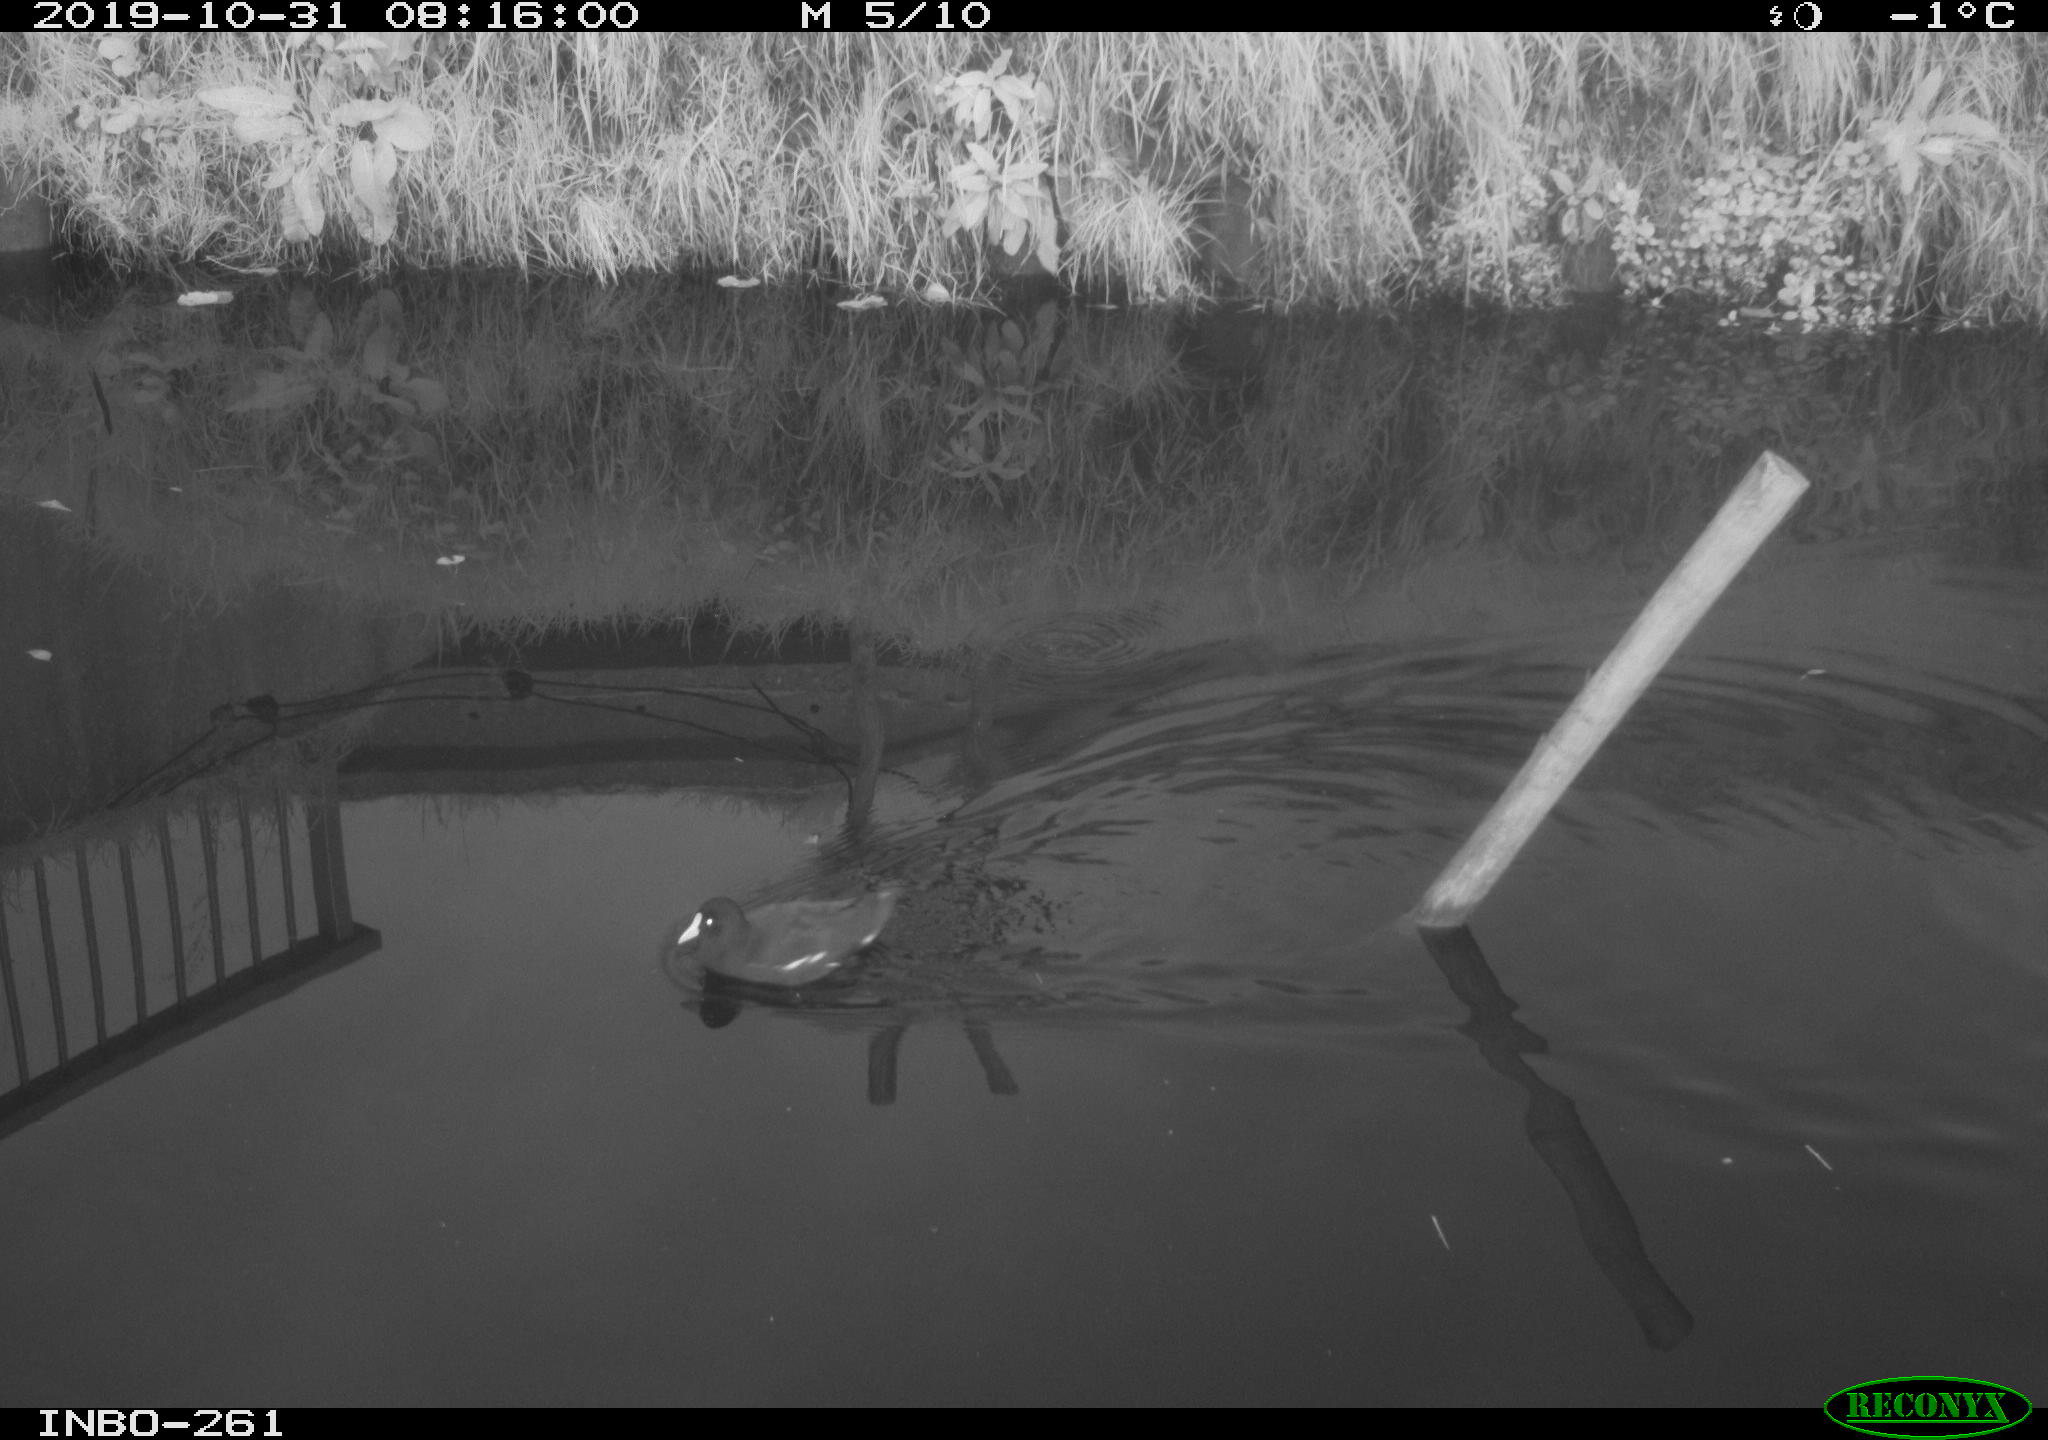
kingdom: Animalia
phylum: Chordata
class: Aves
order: Gruiformes
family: Rallidae
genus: Gallinula
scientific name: Gallinula chloropus
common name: Common moorhen
